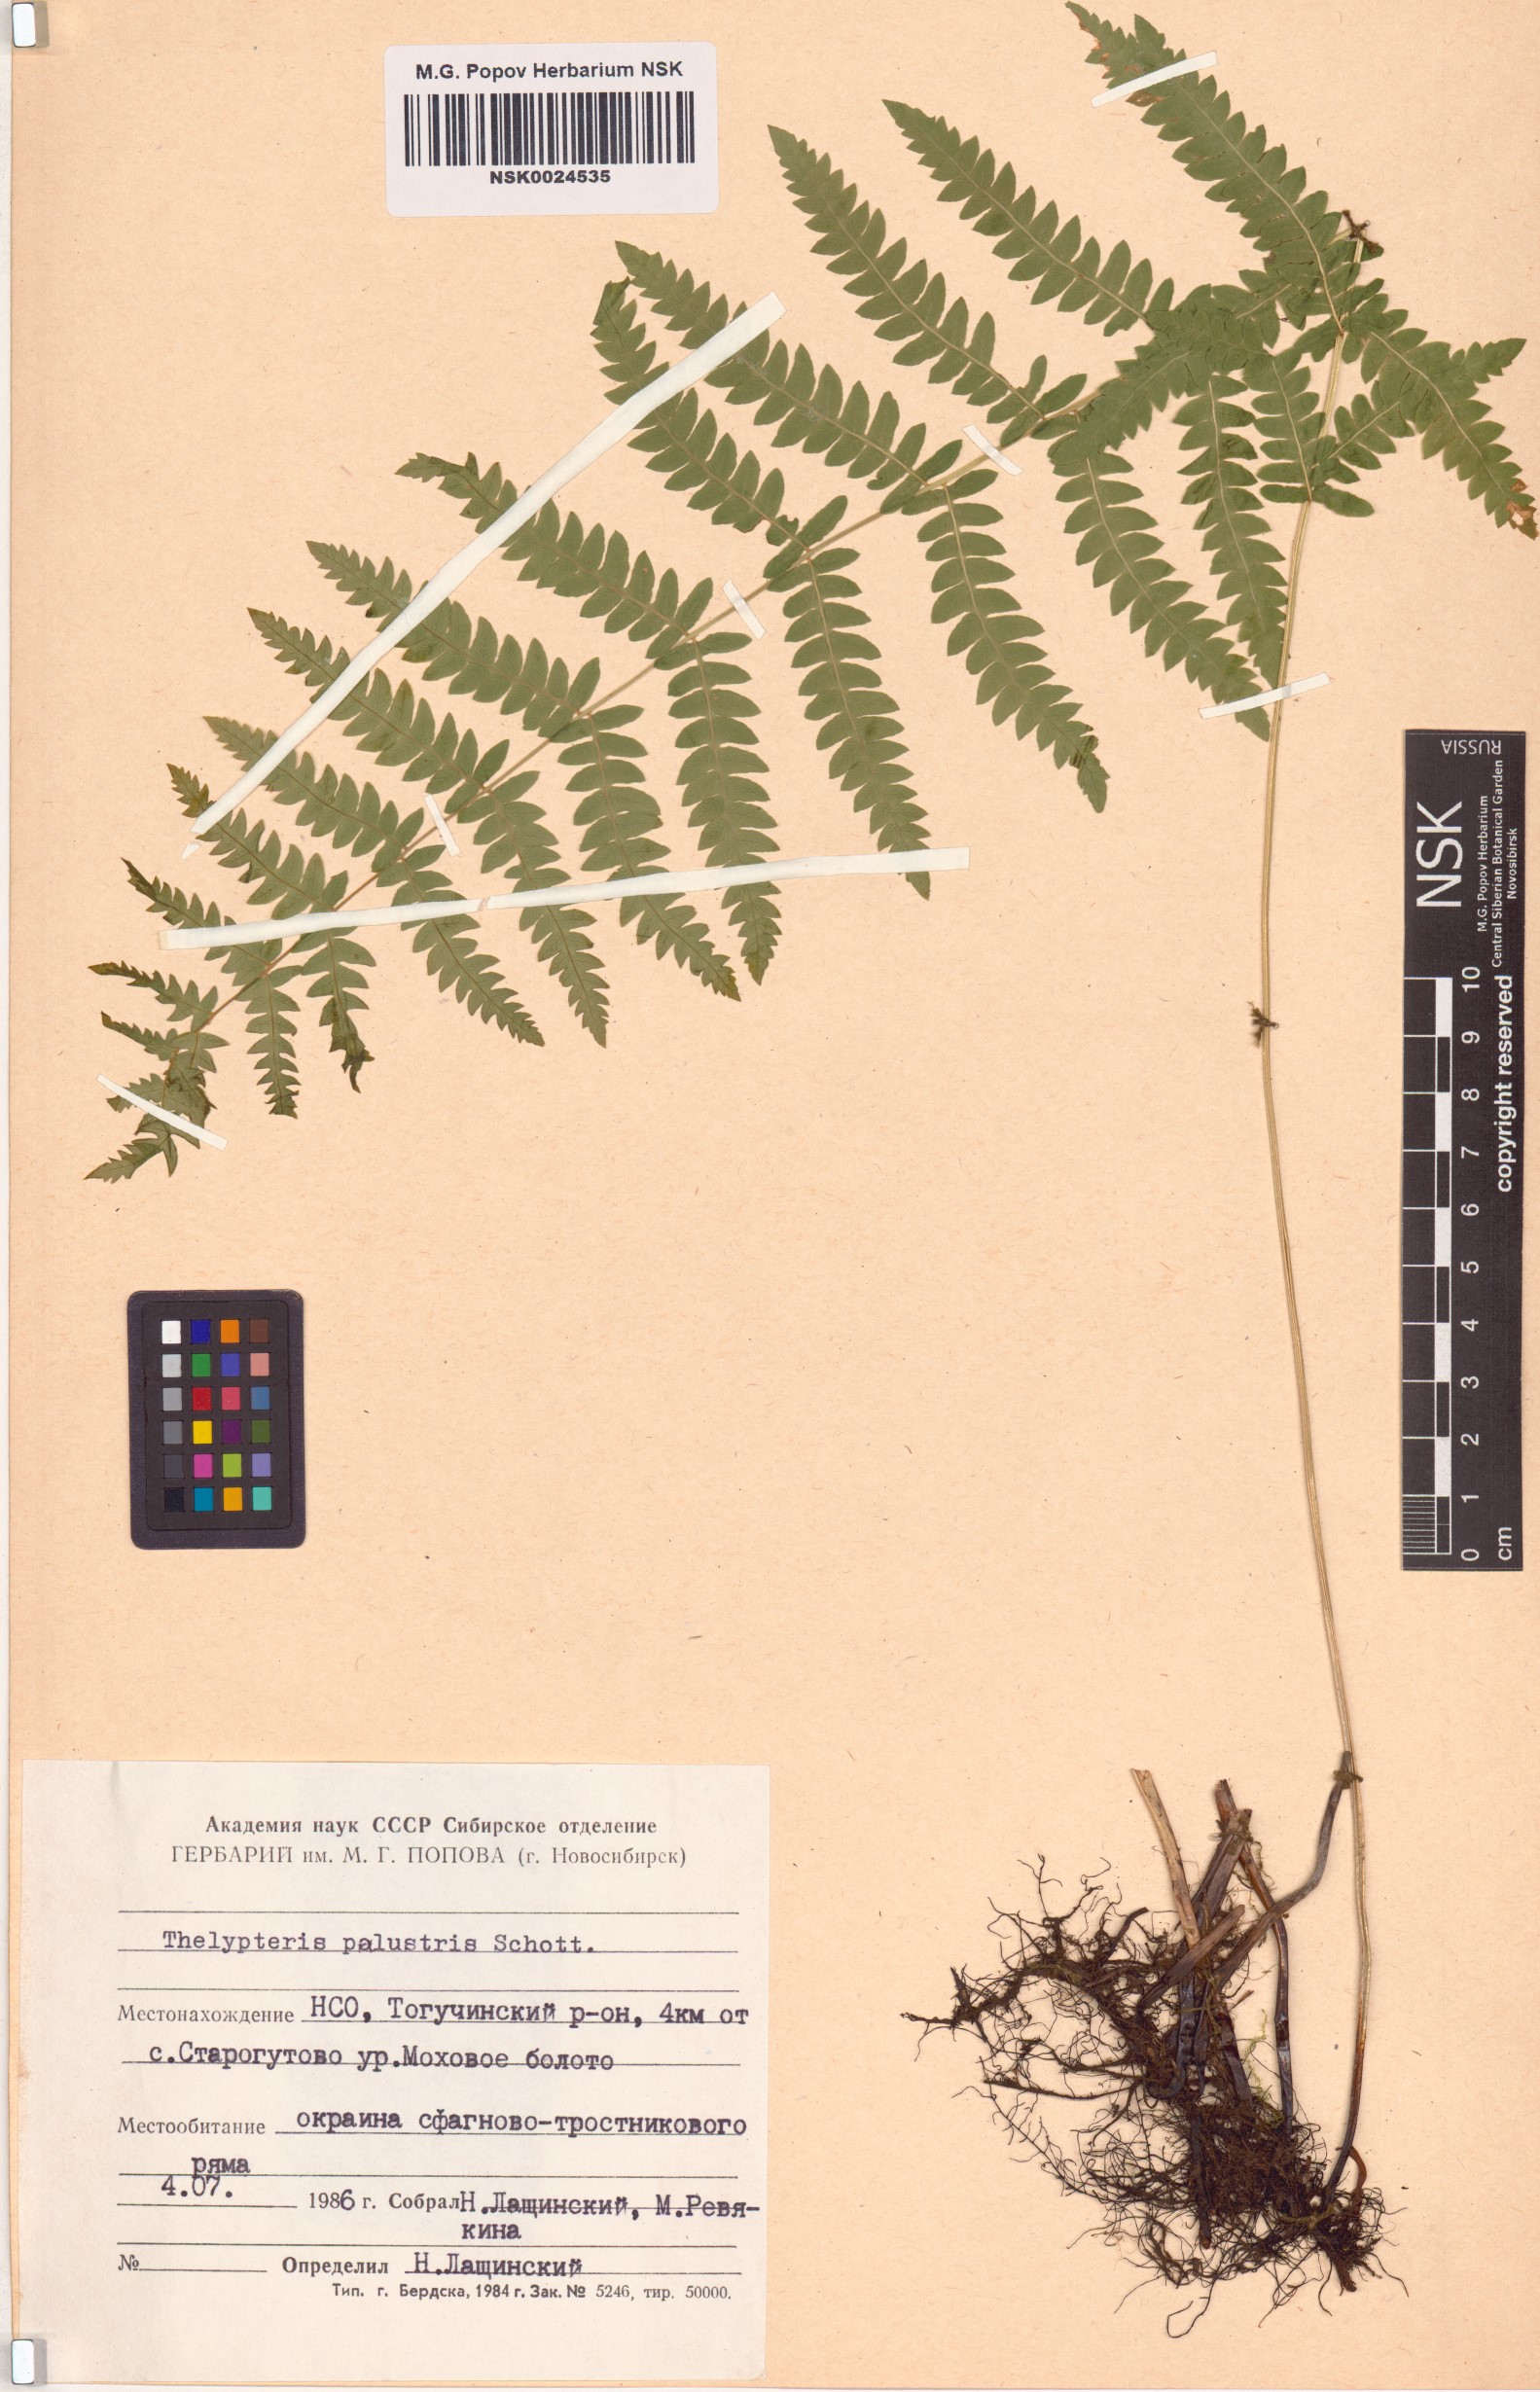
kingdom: Plantae
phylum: Tracheophyta
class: Polypodiopsida
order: Polypodiales
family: Thelypteridaceae
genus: Thelypteris
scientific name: Thelypteris palustris
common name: Marsh fern
